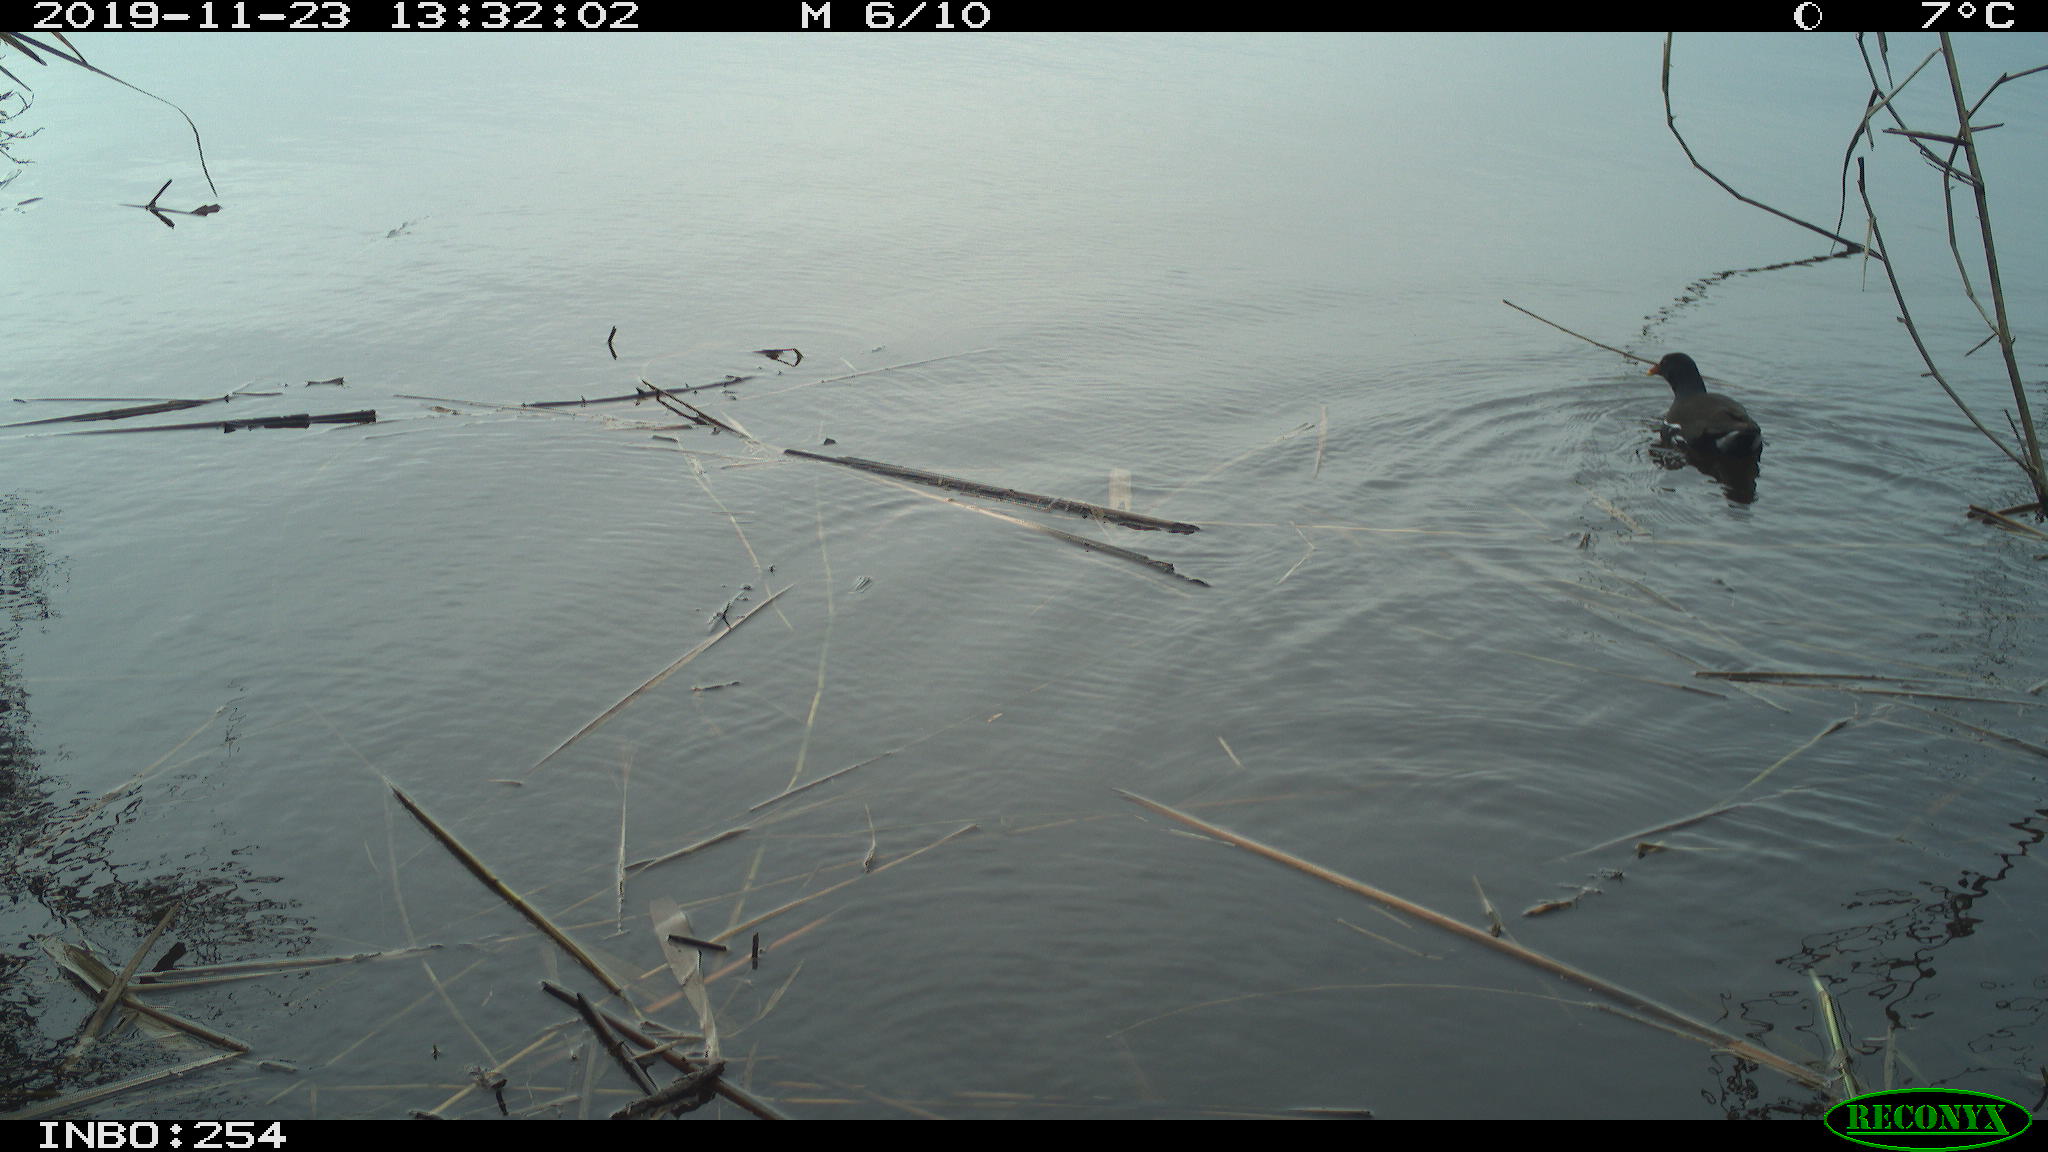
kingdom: Animalia
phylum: Chordata
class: Aves
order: Gruiformes
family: Rallidae
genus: Gallinula
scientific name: Gallinula chloropus
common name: Common moorhen
